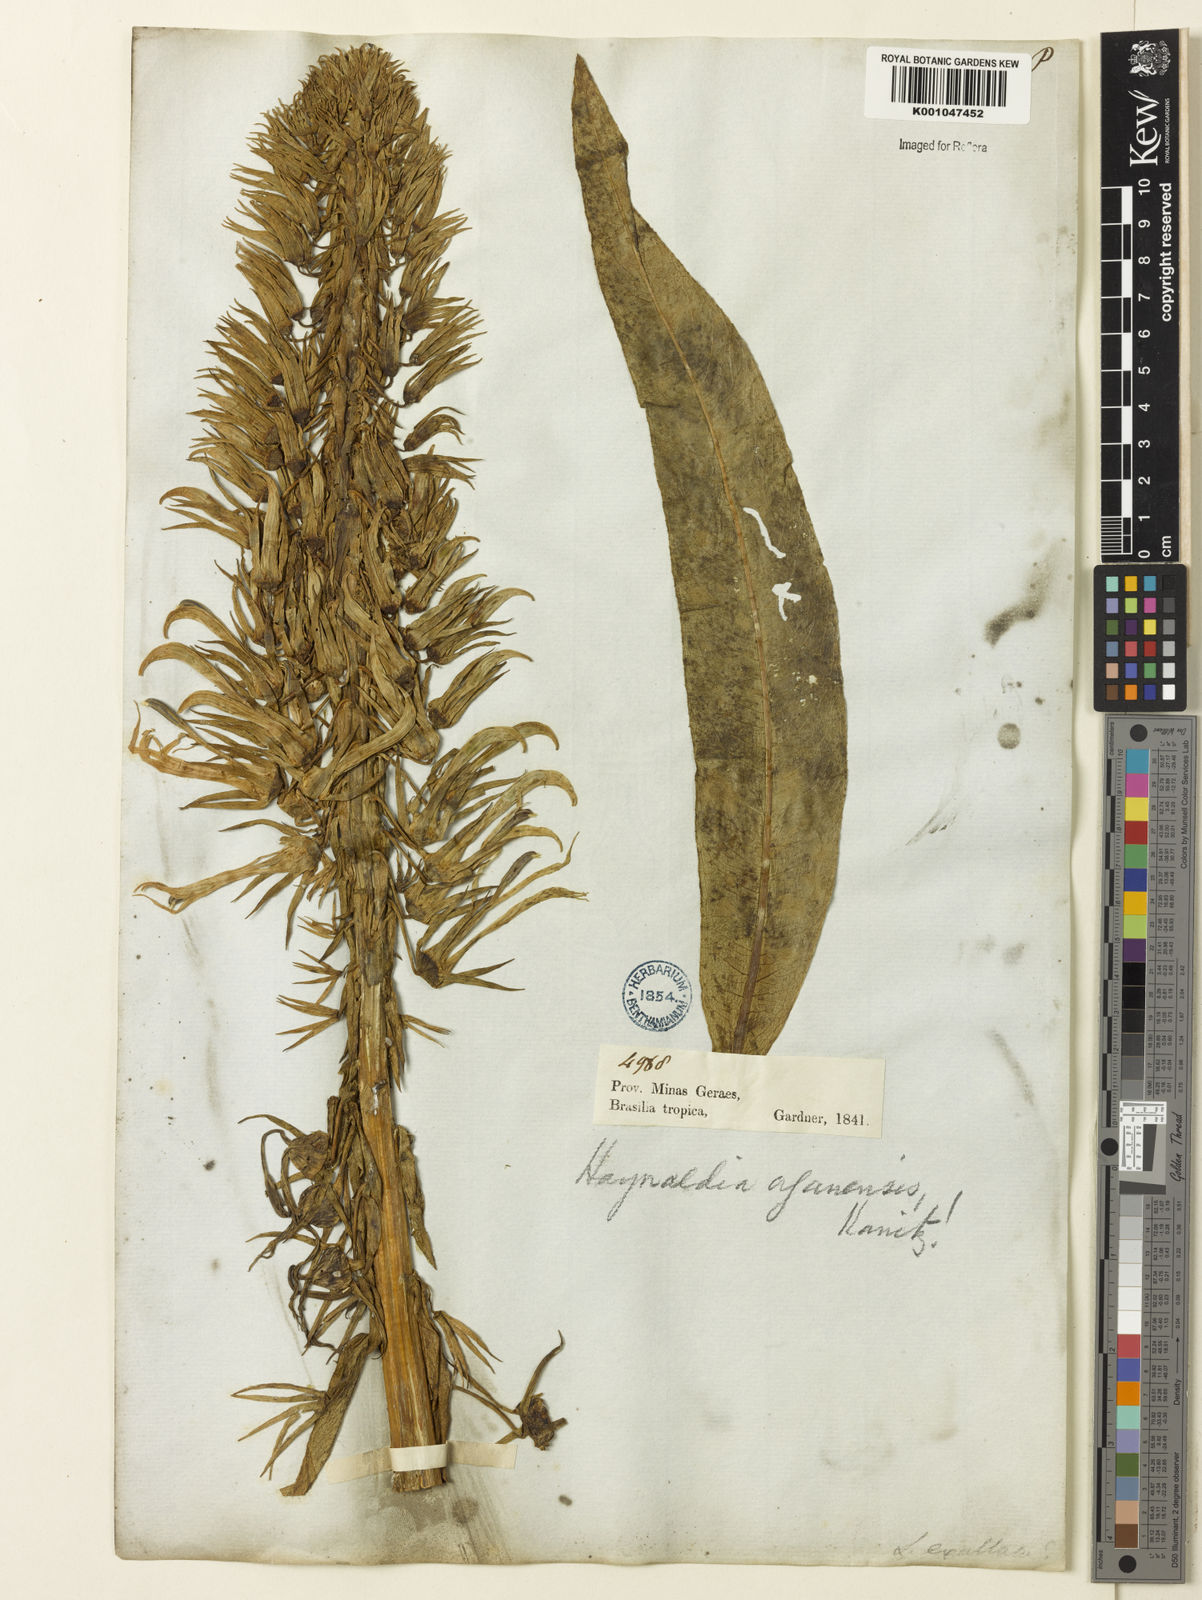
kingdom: Plantae
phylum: Tracheophyta
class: Magnoliopsida
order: Asterales
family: Campanulaceae
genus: Lobelia
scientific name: Lobelia organensis
